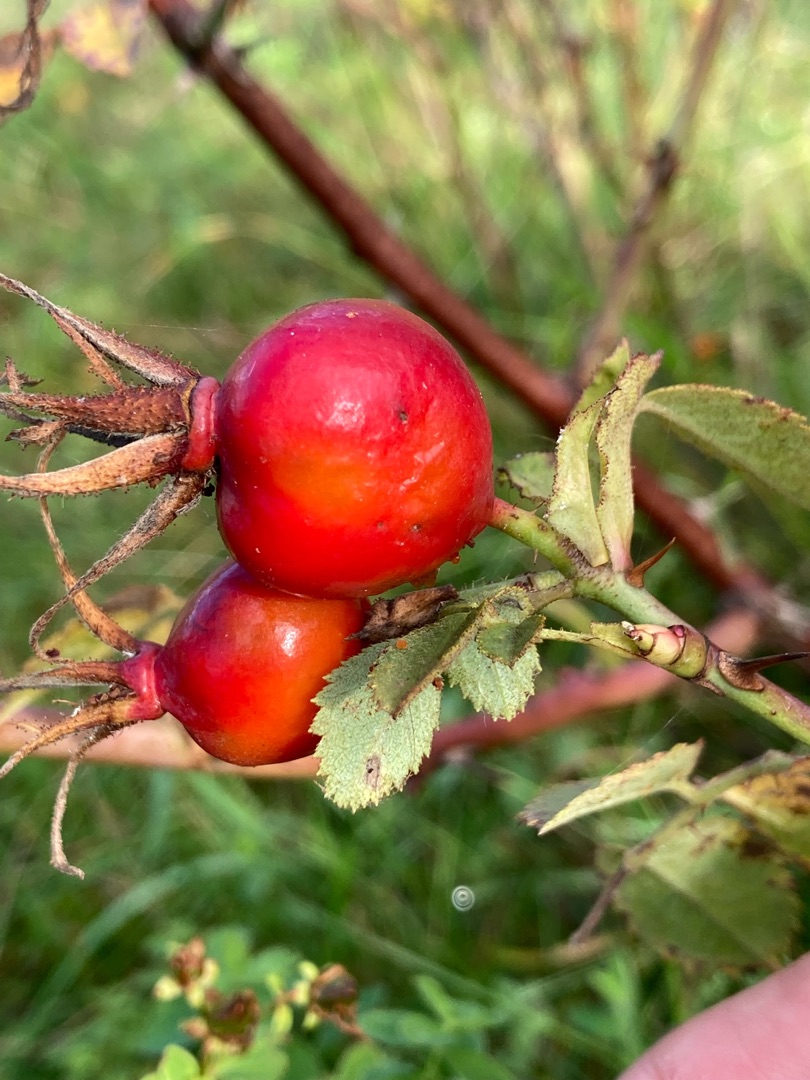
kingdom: Plantae
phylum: Tracheophyta
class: Magnoliopsida
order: Rosales
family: Rosaceae
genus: Rosa
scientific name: Rosa mollis
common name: Blød filt-rose
